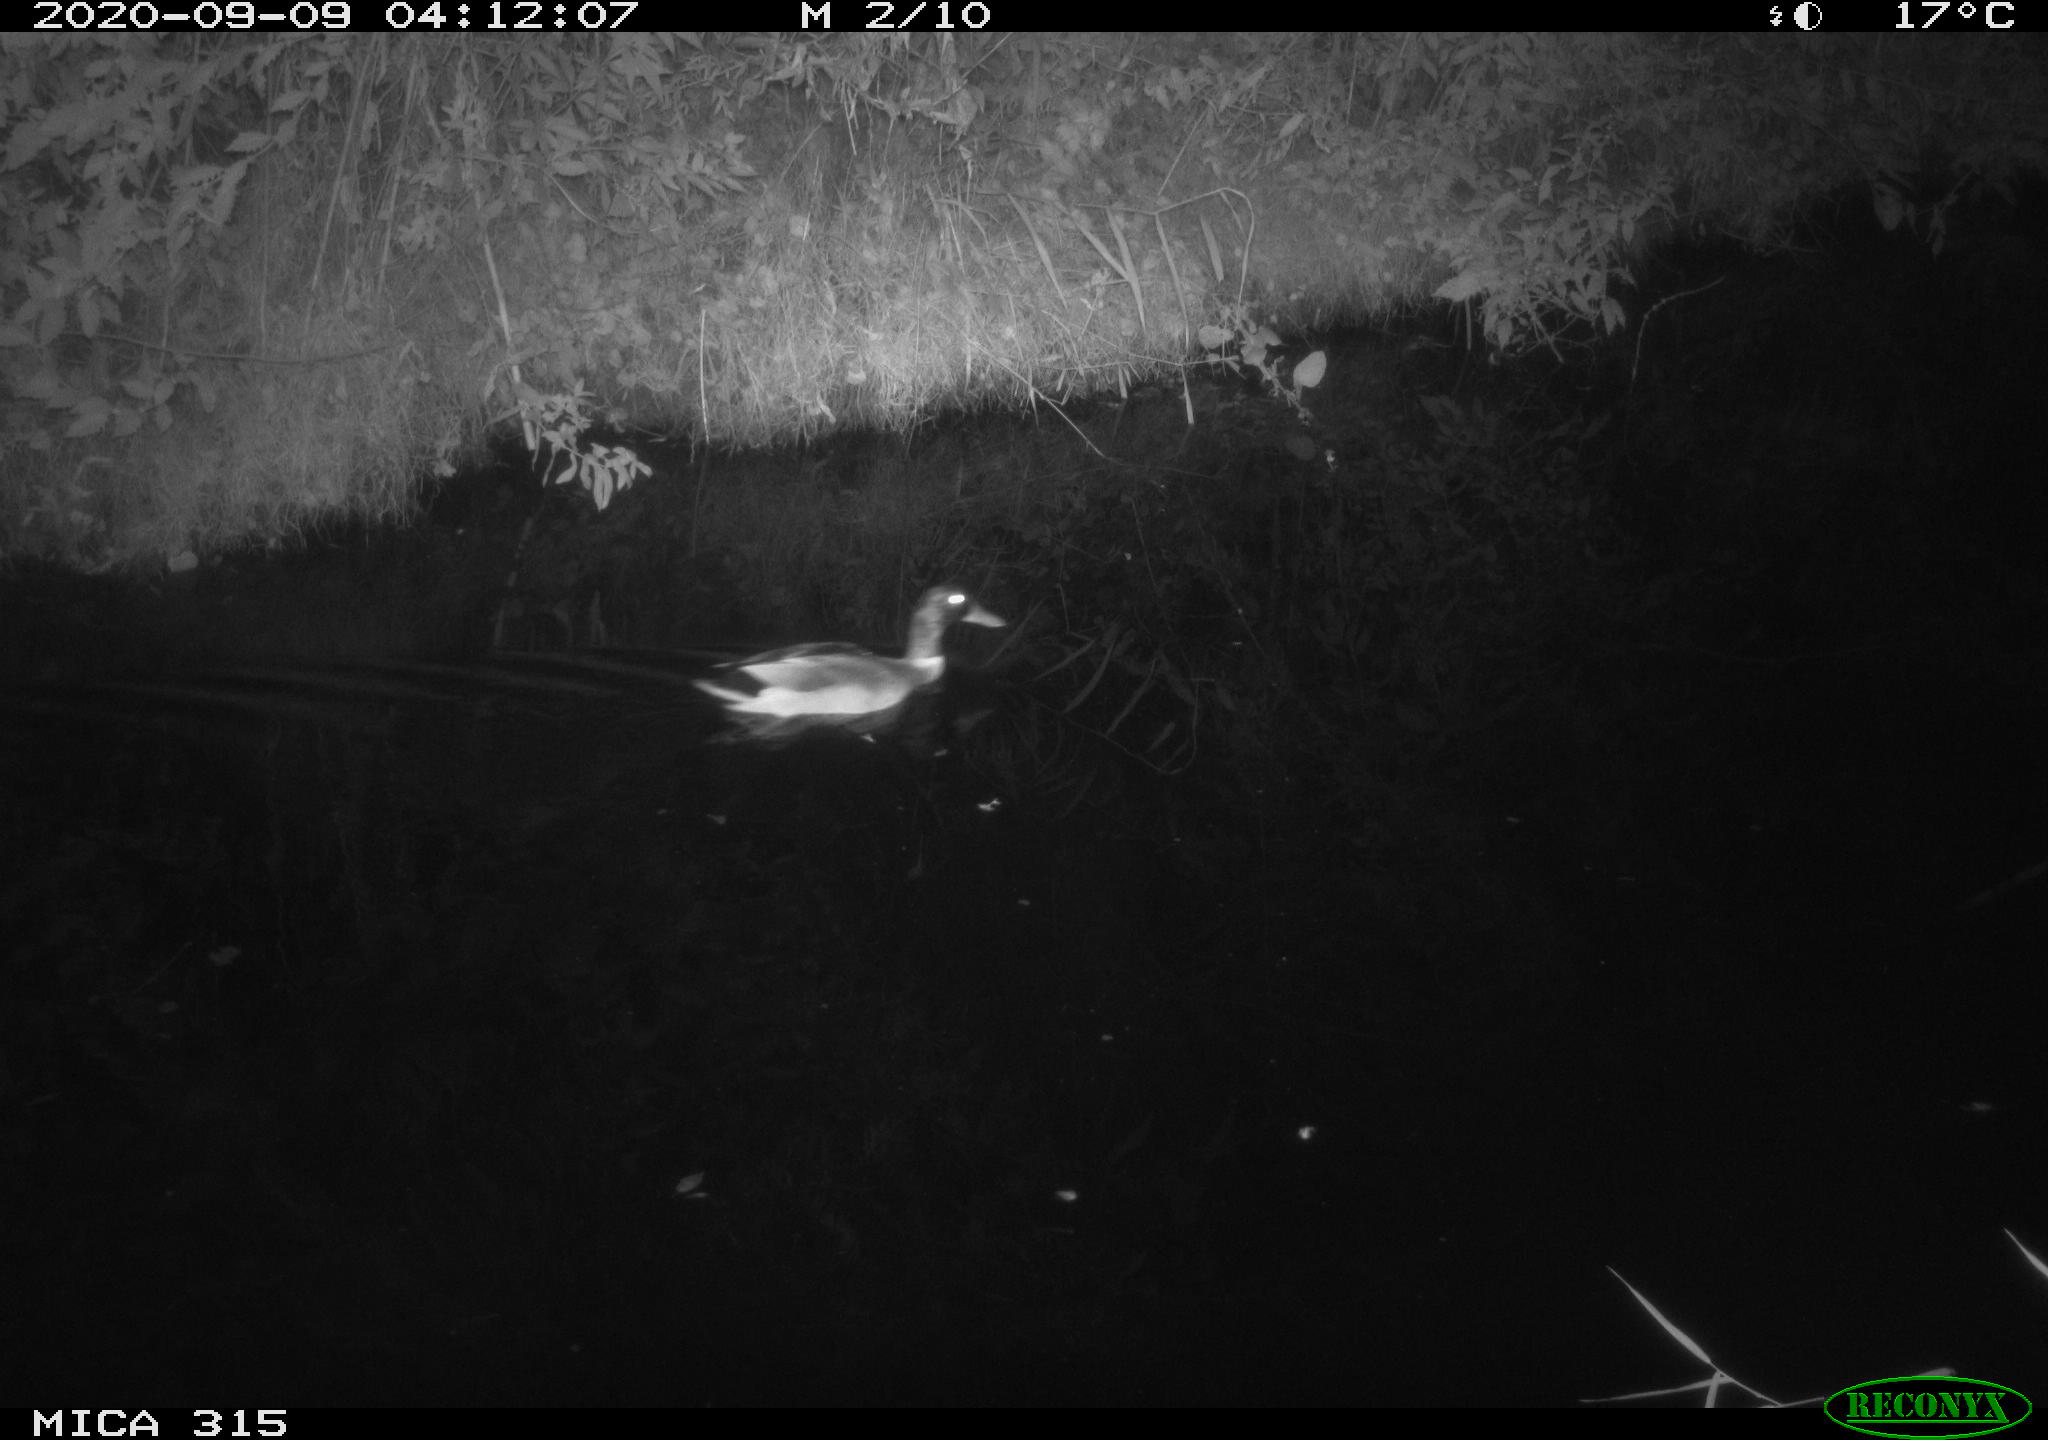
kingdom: Animalia
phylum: Chordata
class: Aves
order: Anseriformes
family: Anatidae
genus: Anas
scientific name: Anas platyrhynchos
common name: Mallard
